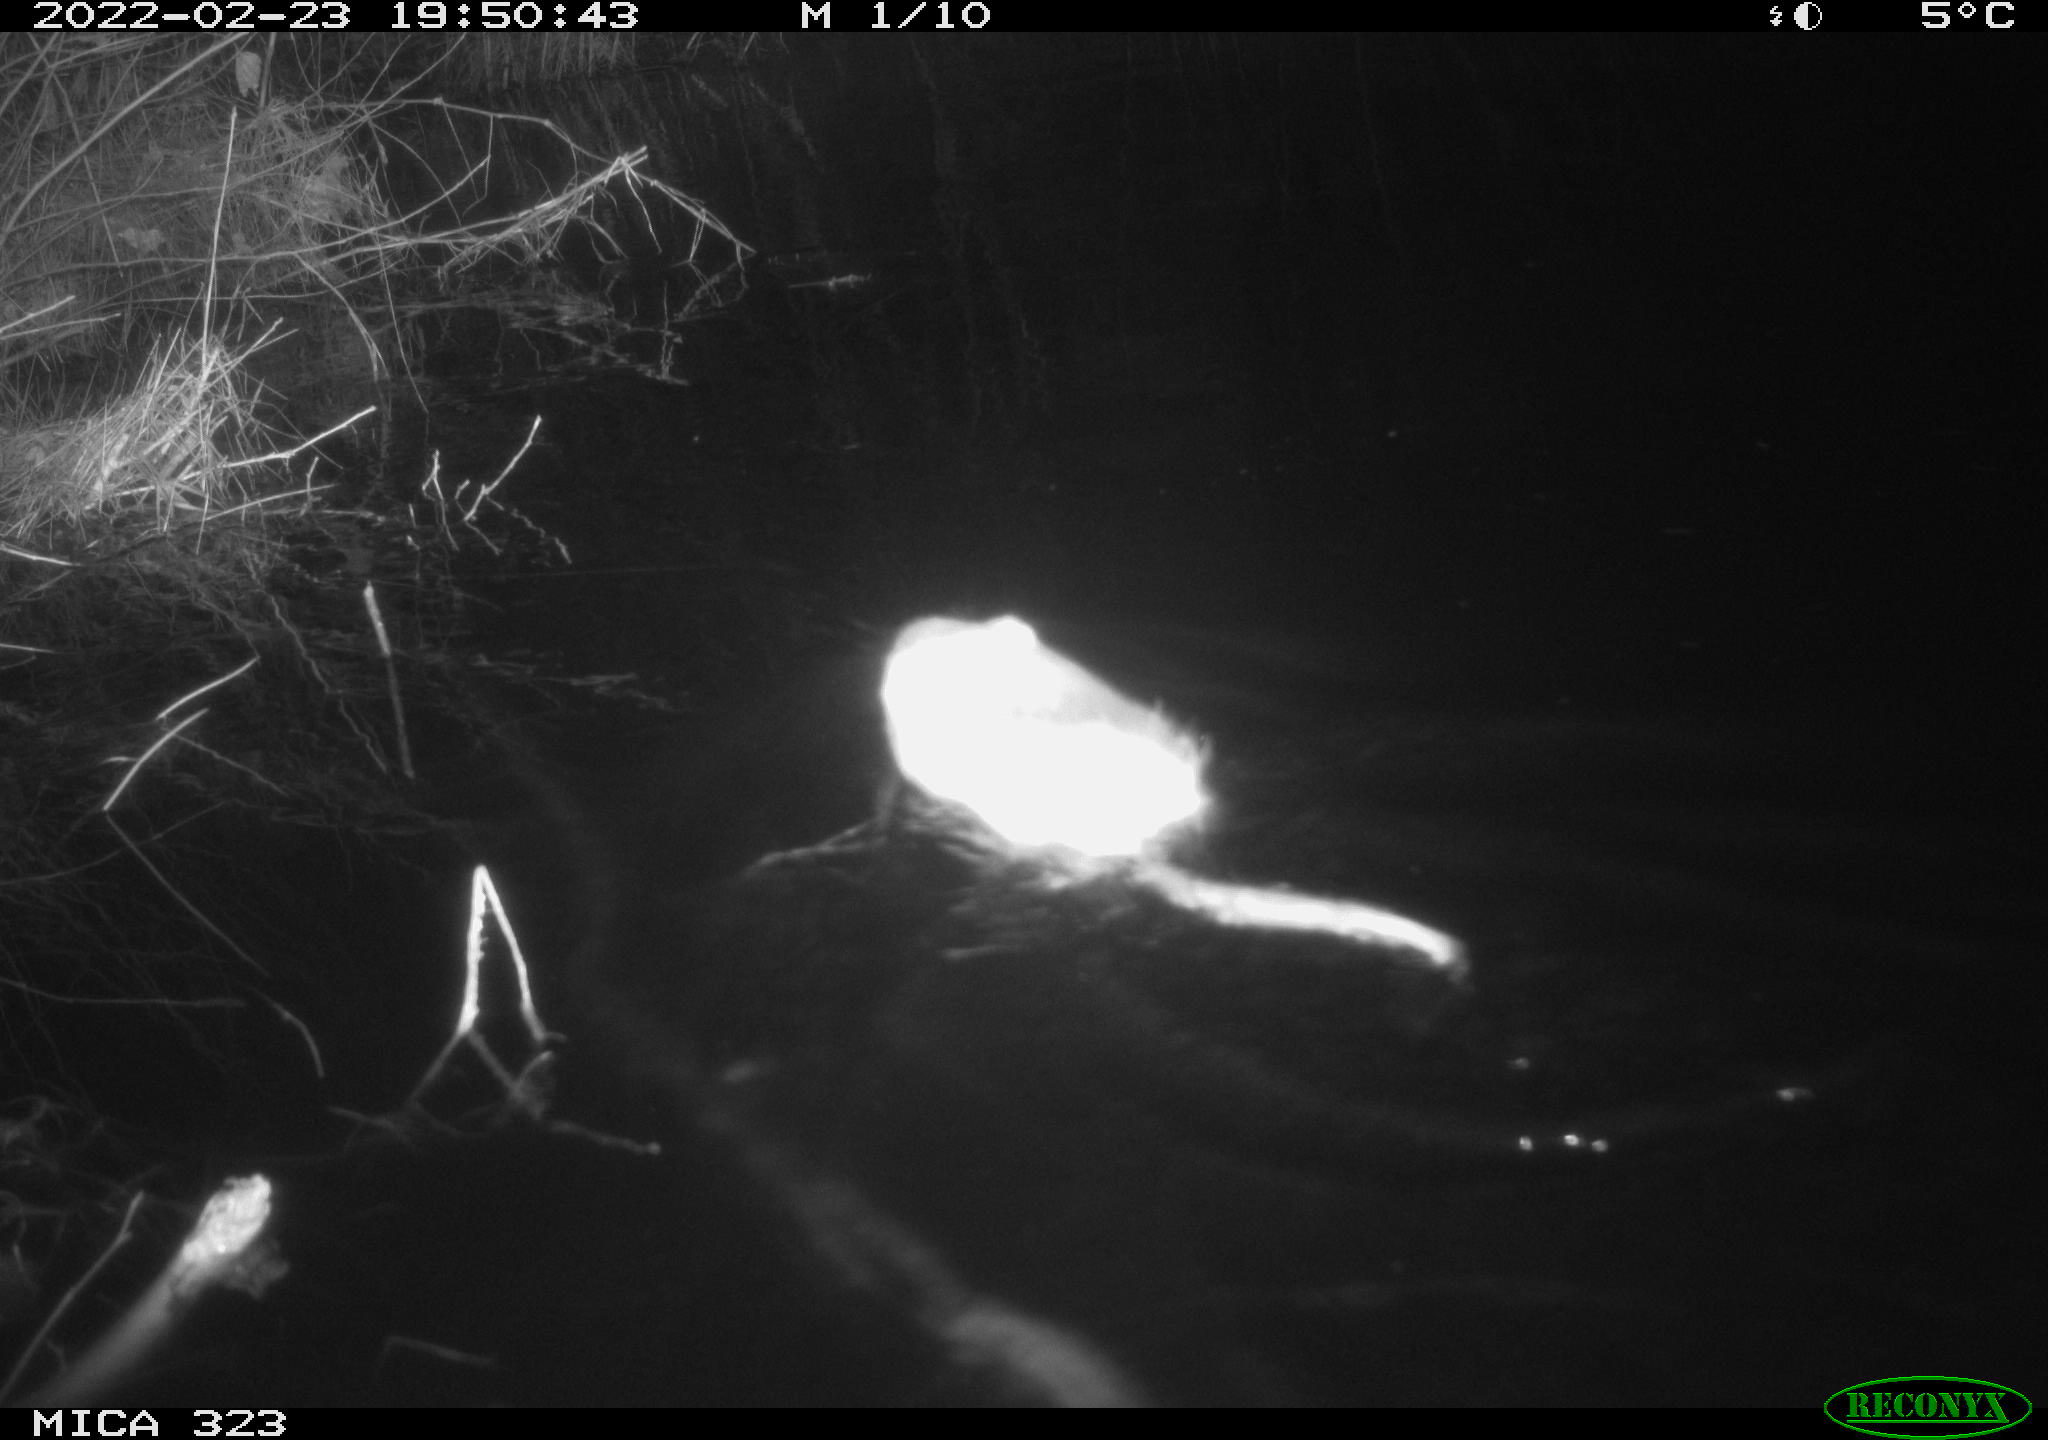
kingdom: Animalia
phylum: Chordata
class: Mammalia
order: Rodentia
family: Cricetidae
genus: Ondatra
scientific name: Ondatra zibethicus
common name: Muskrat
